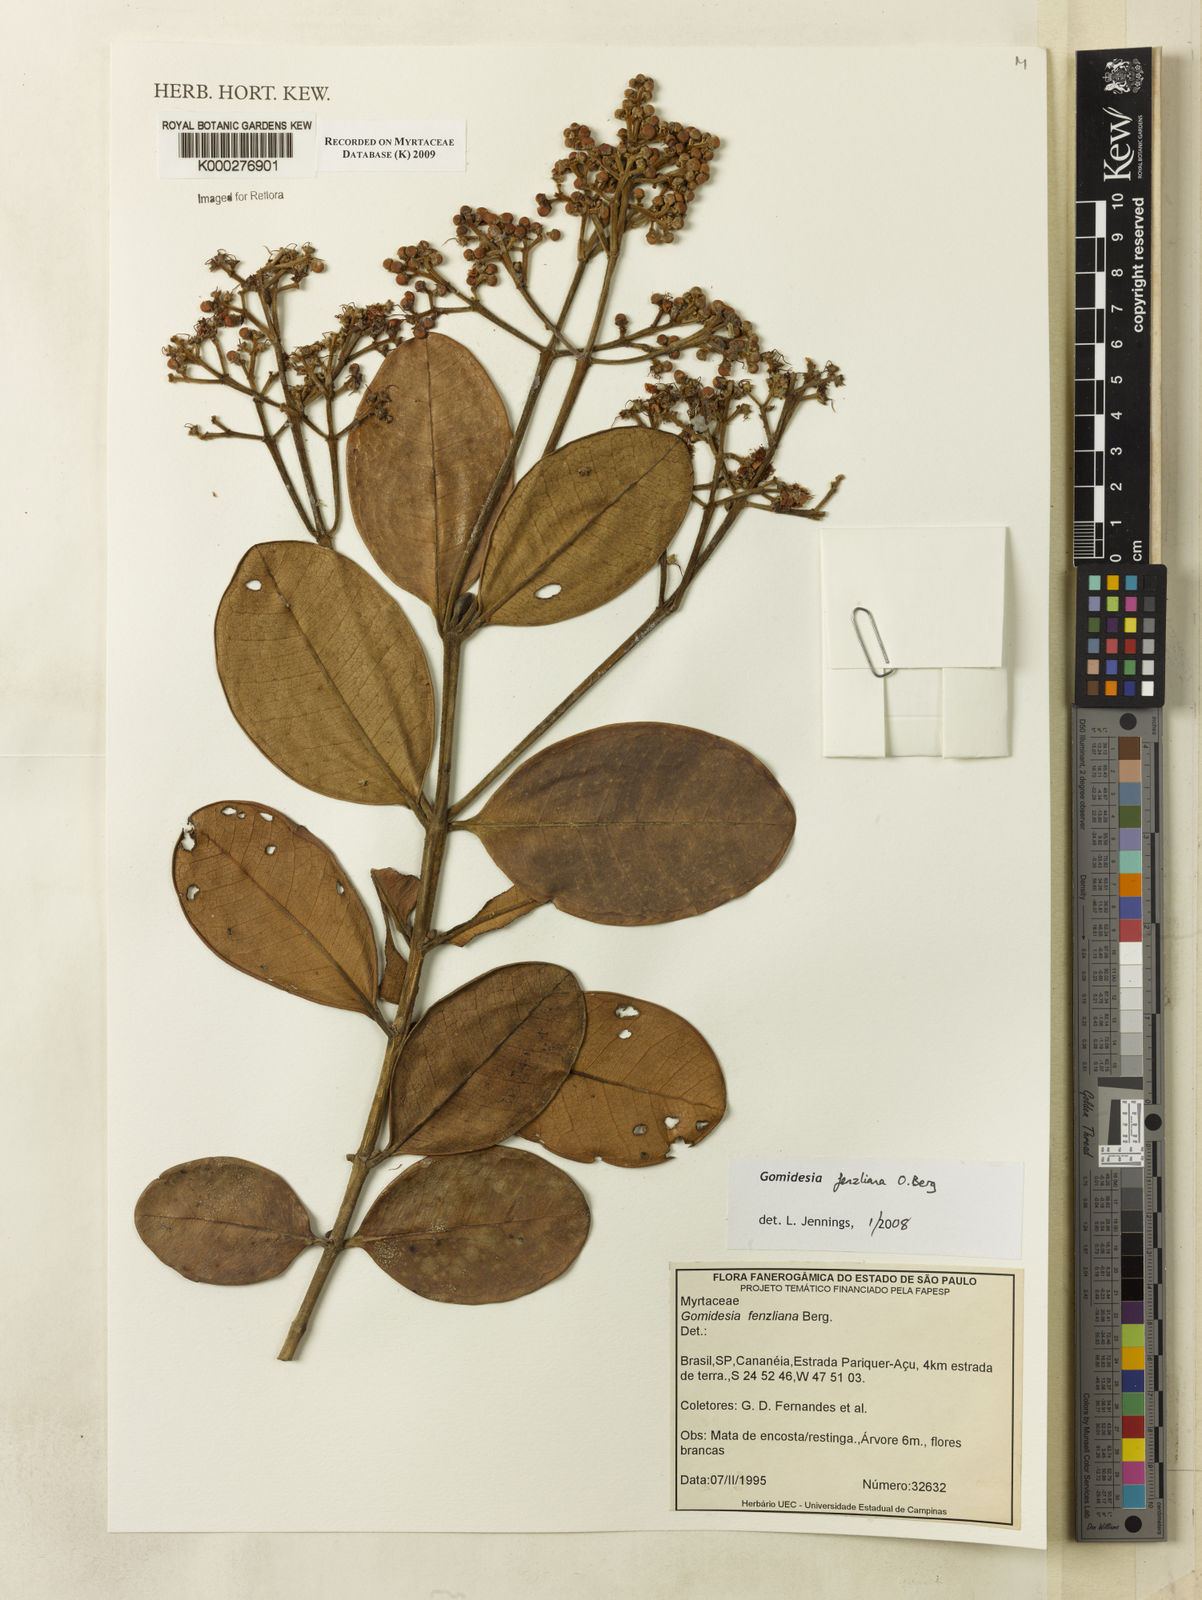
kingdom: Plantae
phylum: Tracheophyta
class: Magnoliopsida
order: Myrtales
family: Myrtaceae
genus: Myrcia
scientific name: Myrcia ilheosensis
